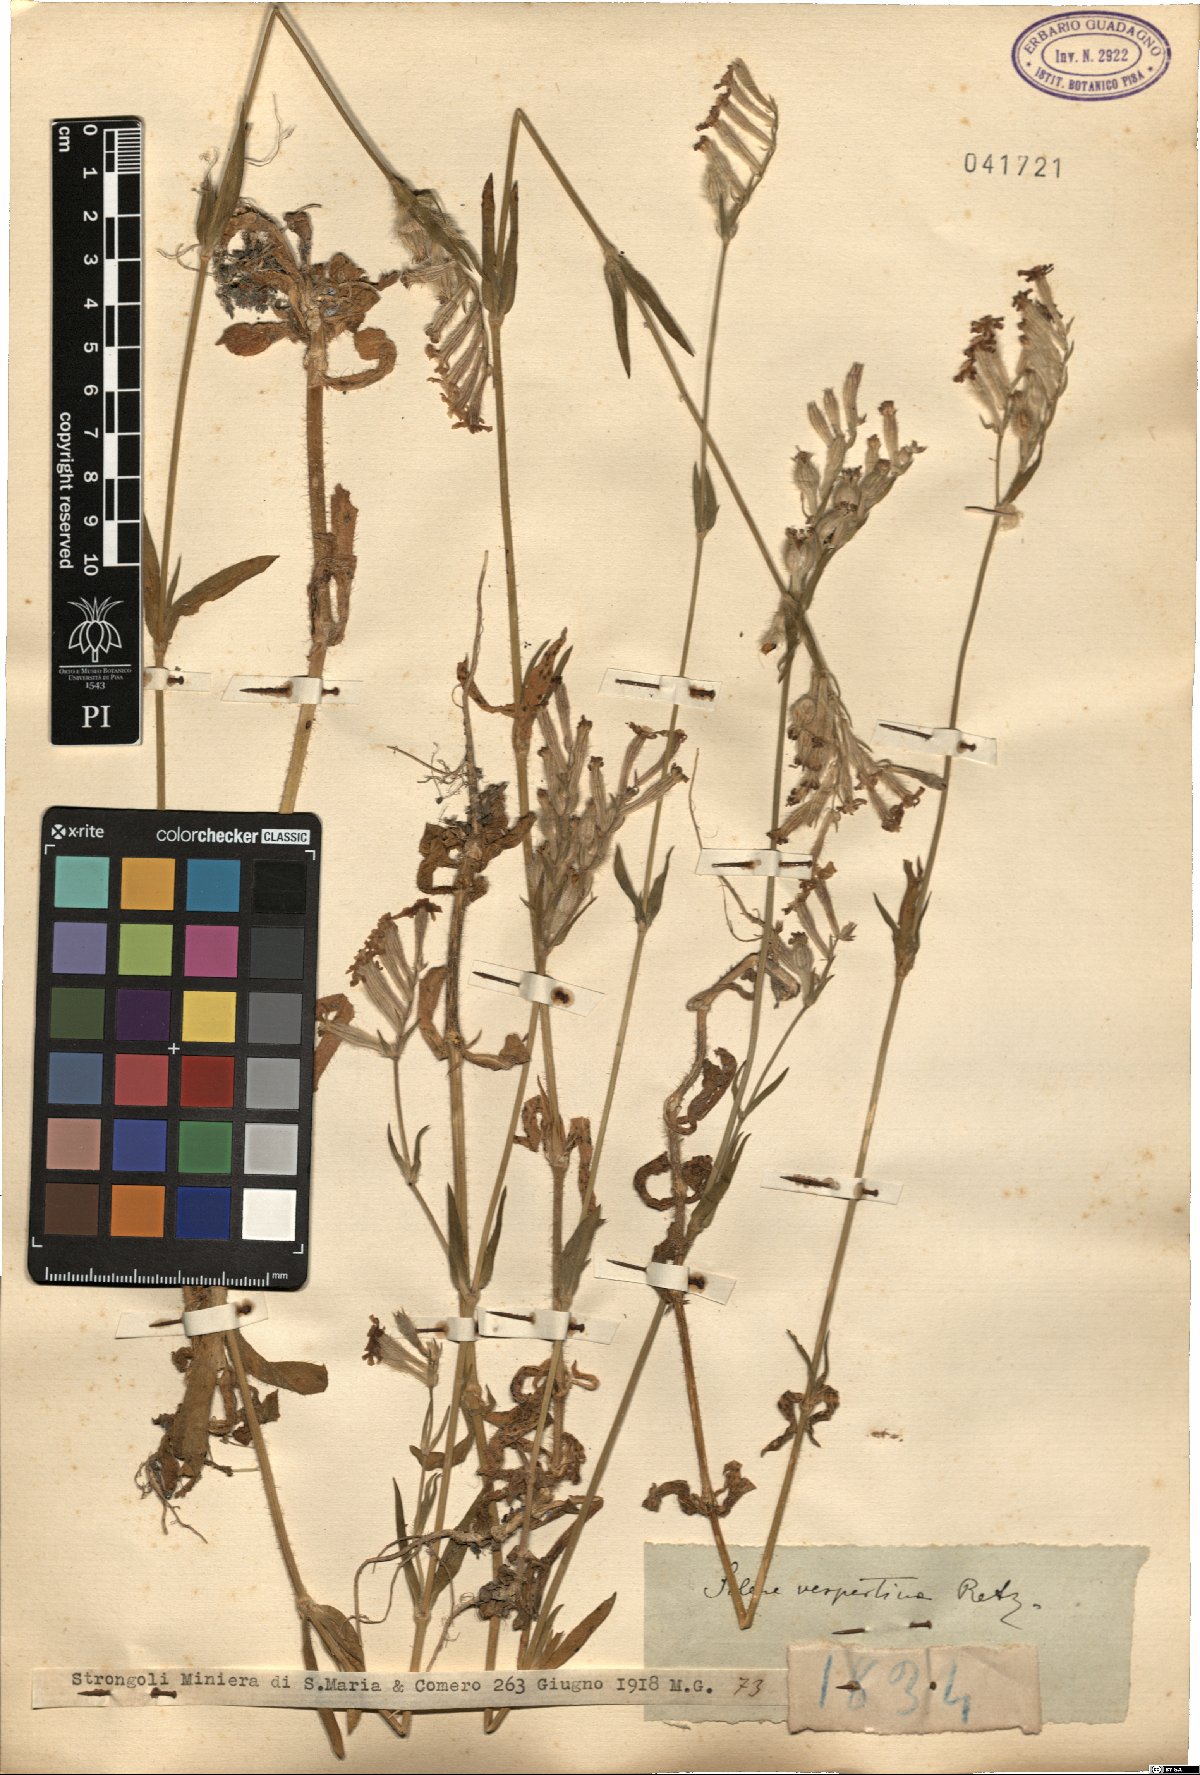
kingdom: Plantae
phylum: Tracheophyta
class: Magnoliopsida
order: Caryophyllales
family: Caryophyllaceae
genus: Silene
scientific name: Silene bellidifolia
